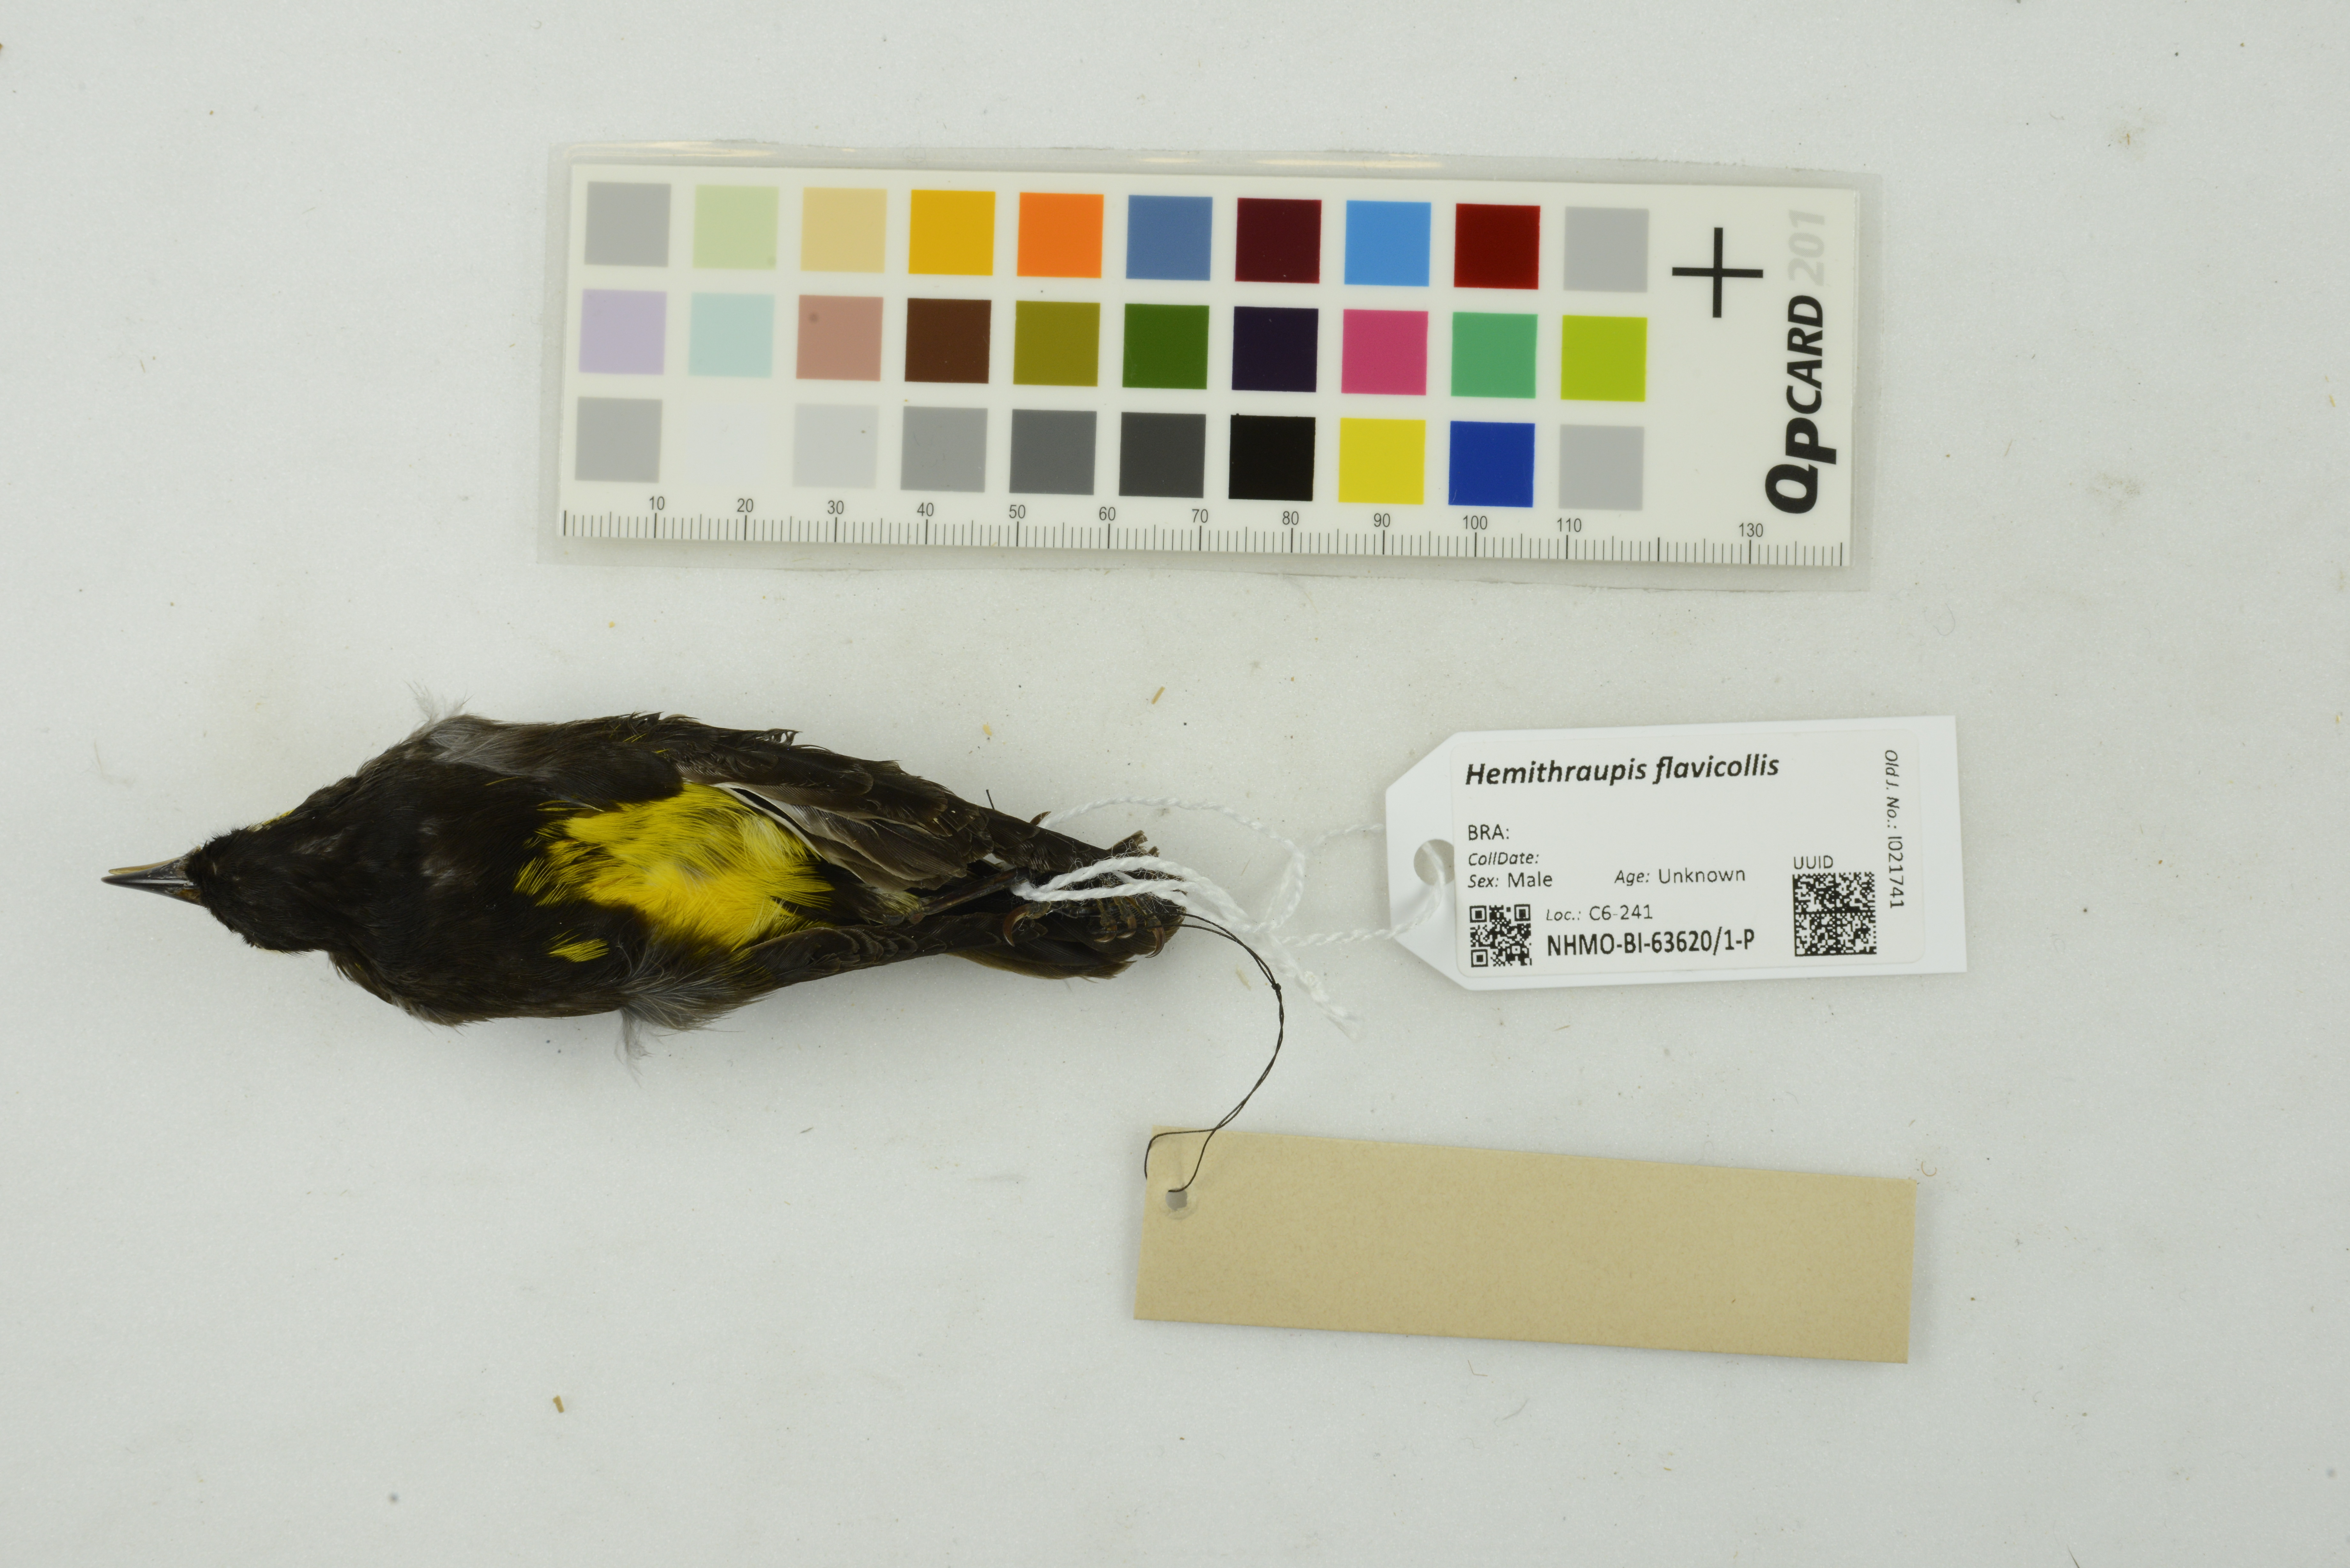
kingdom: Animalia
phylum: Chordata
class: Aves
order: Passeriformes
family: Thraupidae
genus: Hemithraupis
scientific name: Hemithraupis flavicollis
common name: Yellow-backed tanager
